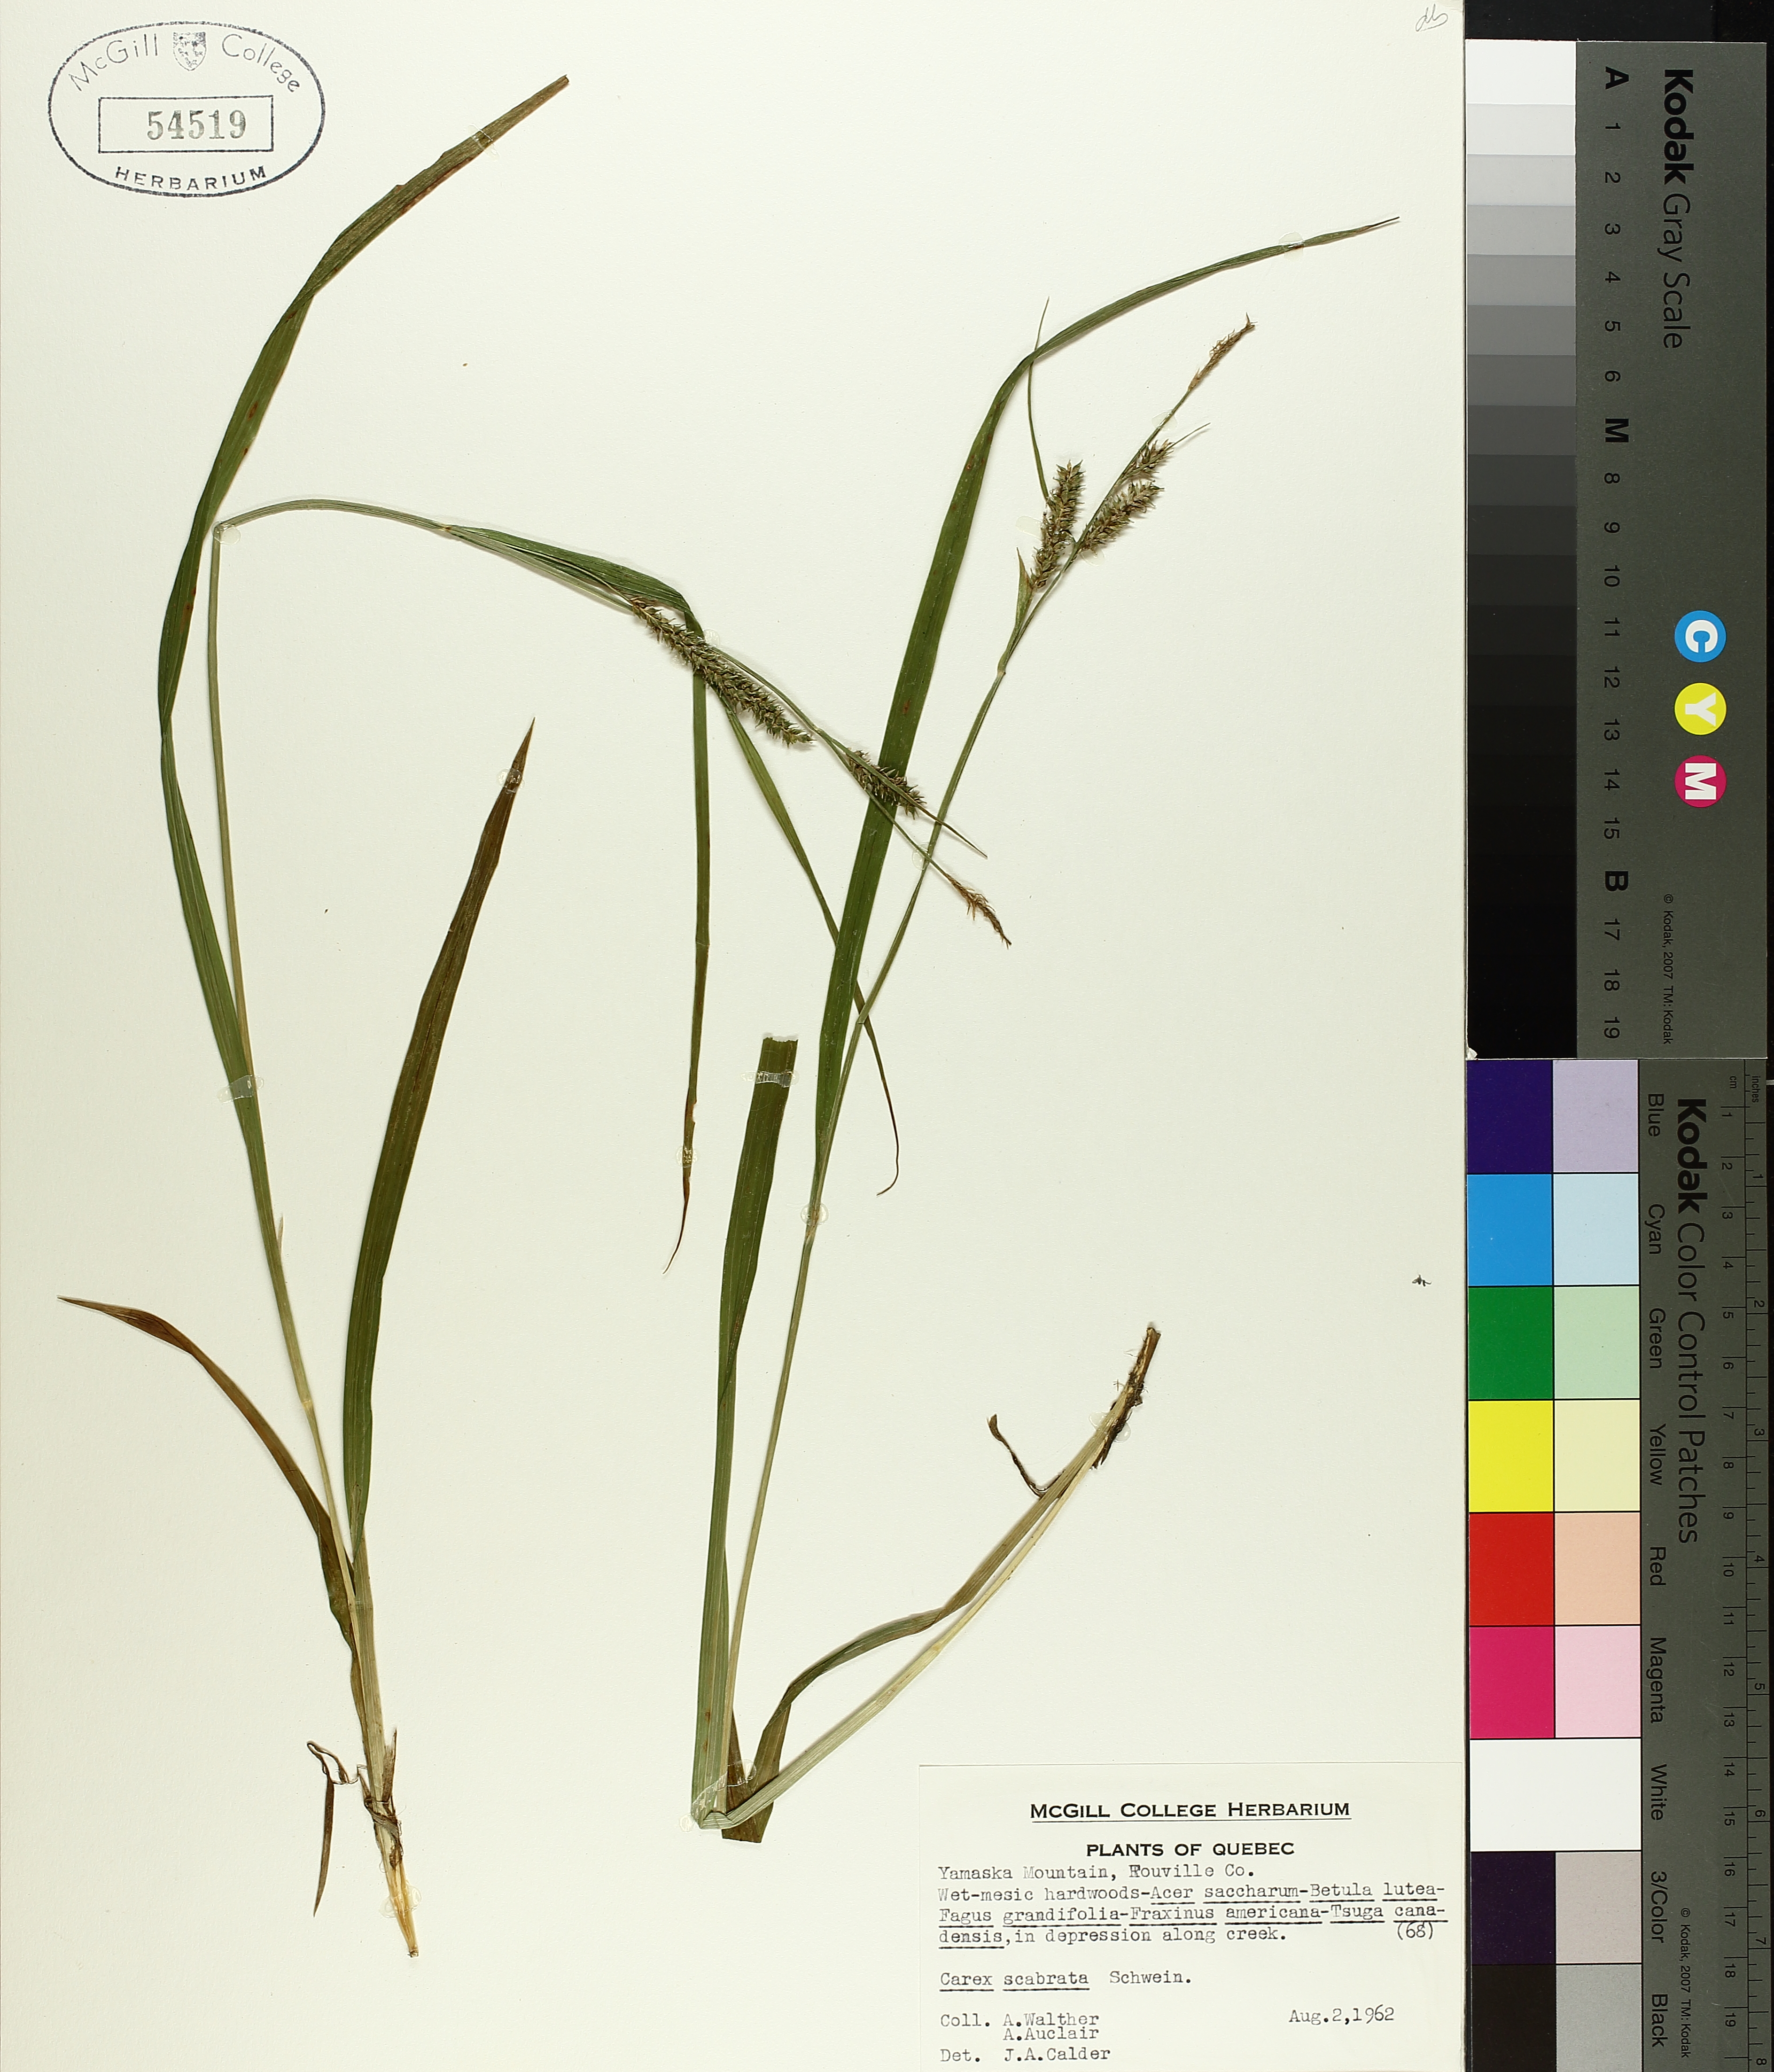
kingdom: Plantae
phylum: Tracheophyta
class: Liliopsida
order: Poales
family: Cyperaceae
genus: Carex
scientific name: Carex saxatilis
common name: Russet sedge
